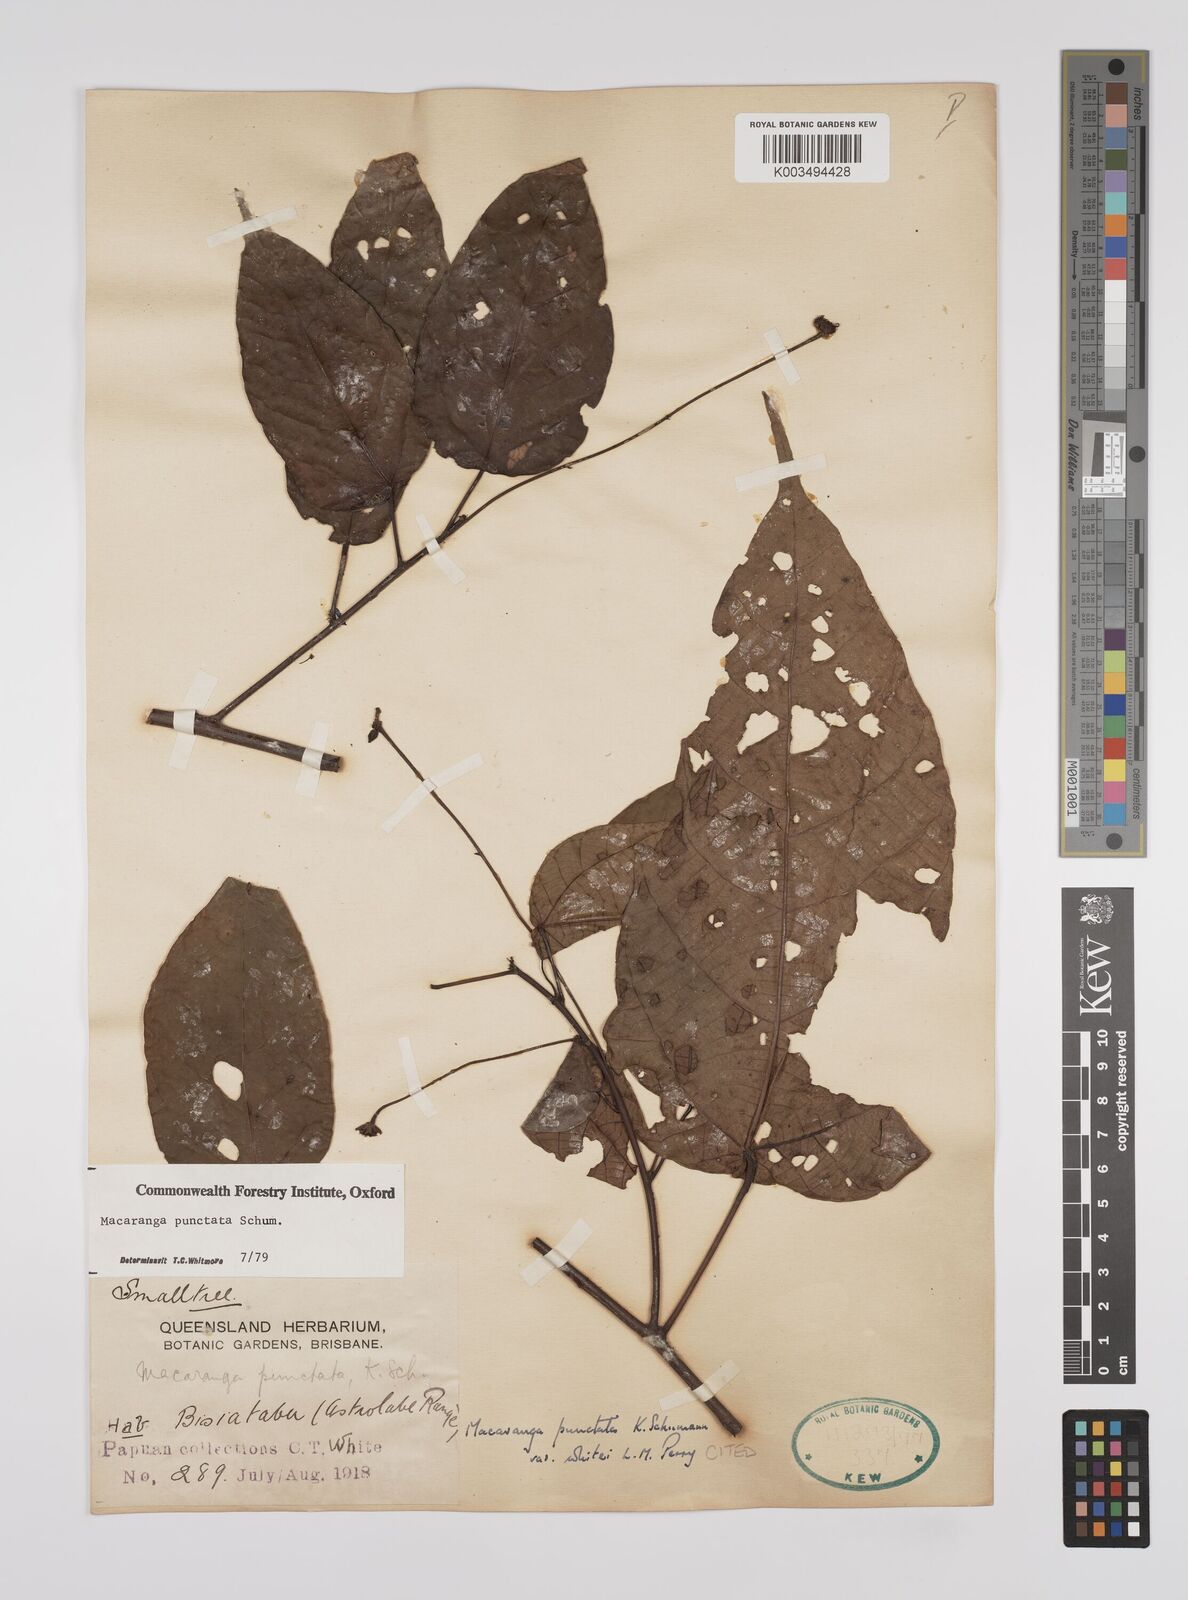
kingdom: Plantae
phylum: Tracheophyta
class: Magnoliopsida
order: Malpighiales
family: Euphorbiaceae
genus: Macaranga
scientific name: Macaranga punctata
